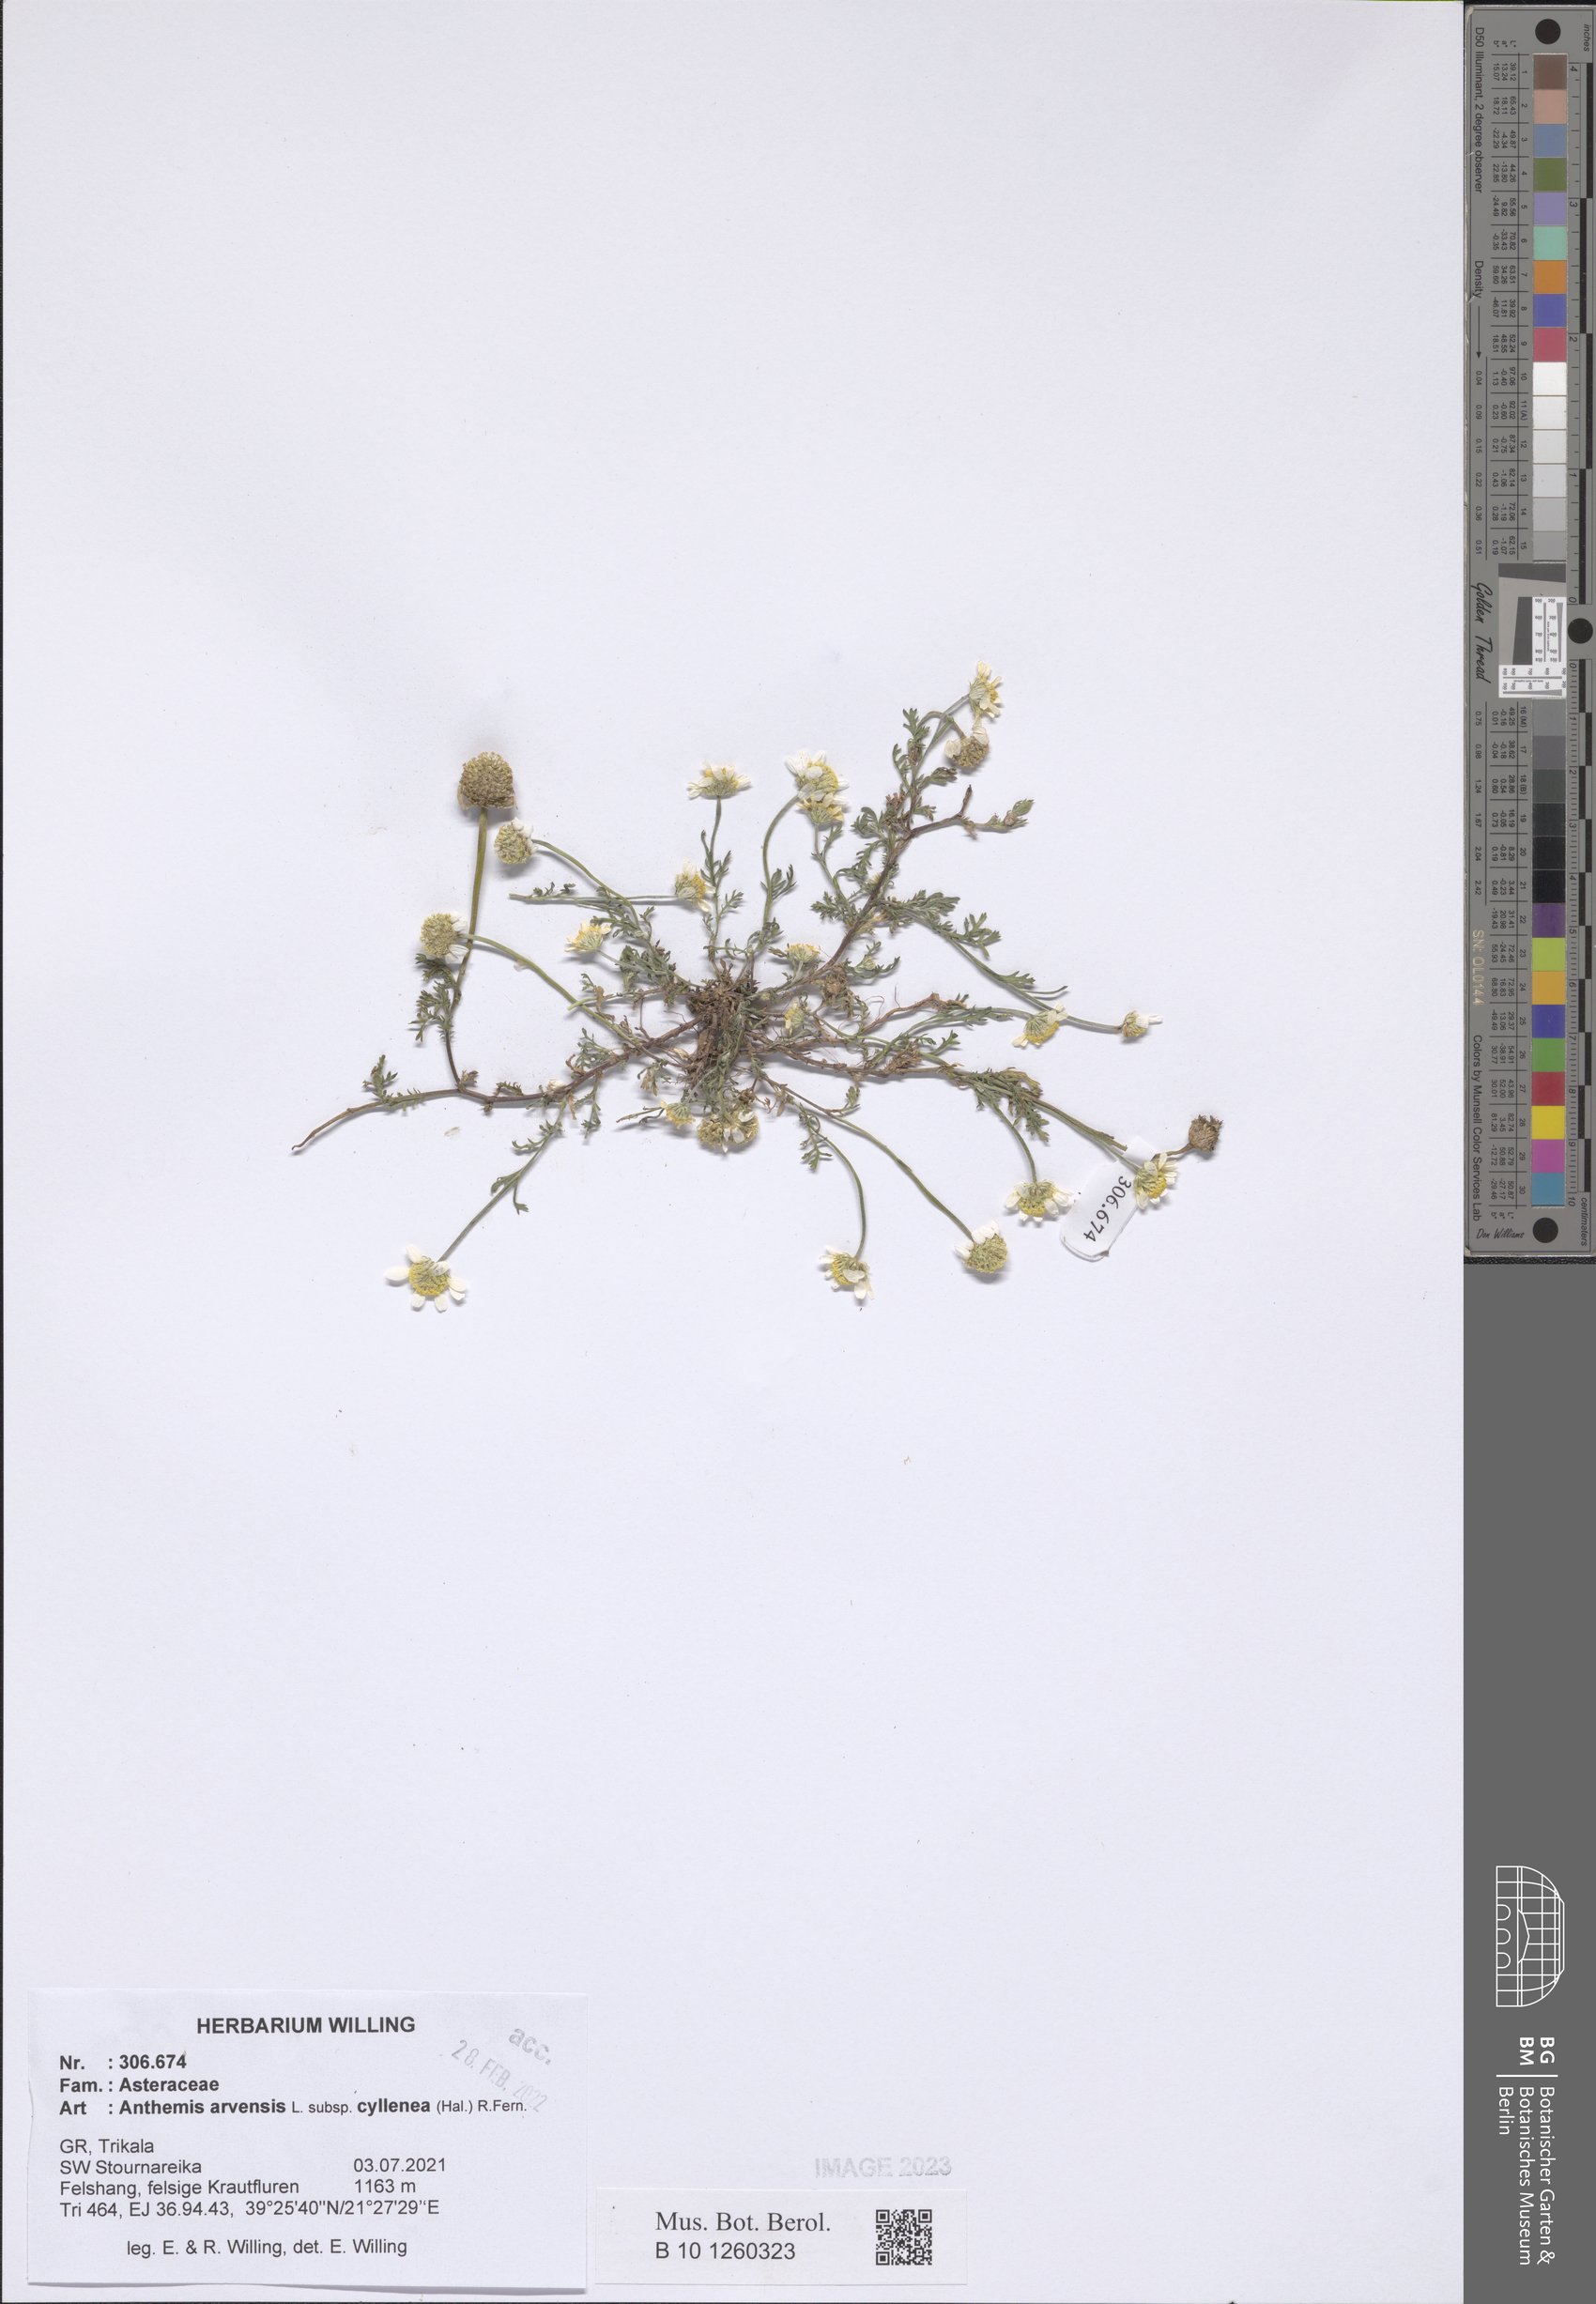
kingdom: Plantae
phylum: Tracheophyta
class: Magnoliopsida
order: Asterales
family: Asteraceae
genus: Anthemis
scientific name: Anthemis arvensis
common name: Corn chamomile
